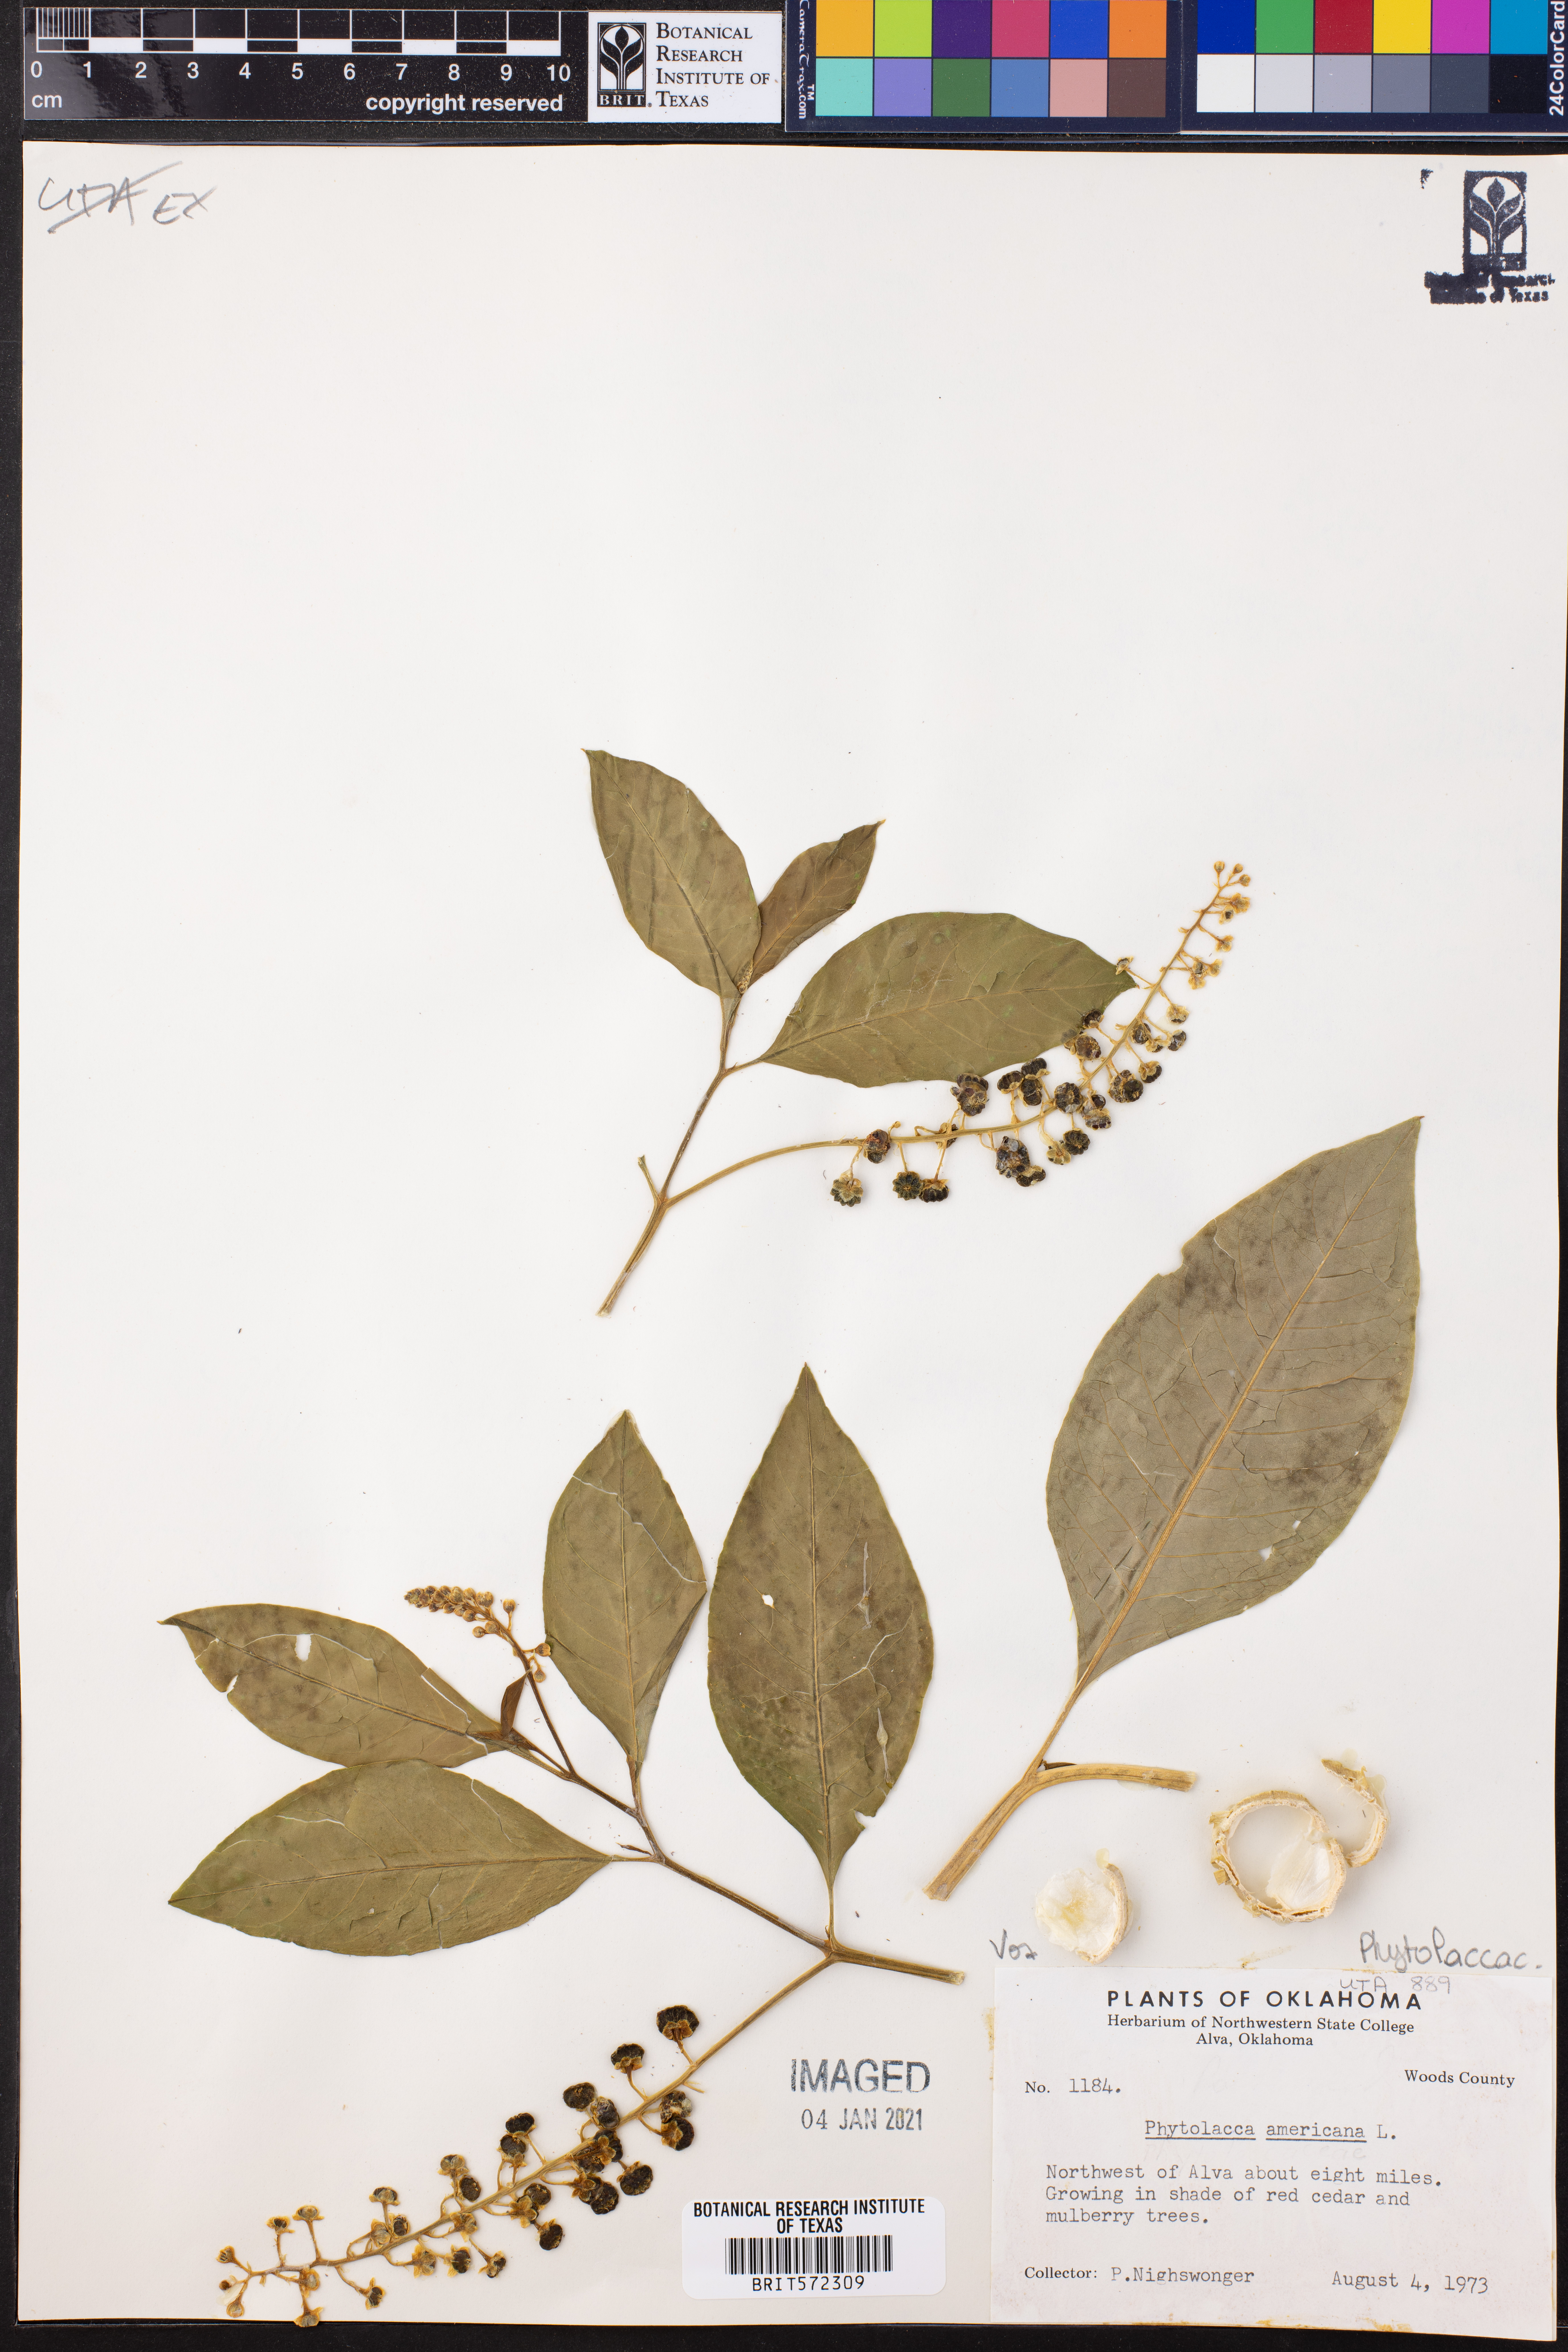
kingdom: Plantae
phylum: Tracheophyta
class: Magnoliopsida
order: Caryophyllales
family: Phytolaccaceae
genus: Phytolacca
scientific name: Phytolacca americana
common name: American pokeweed
